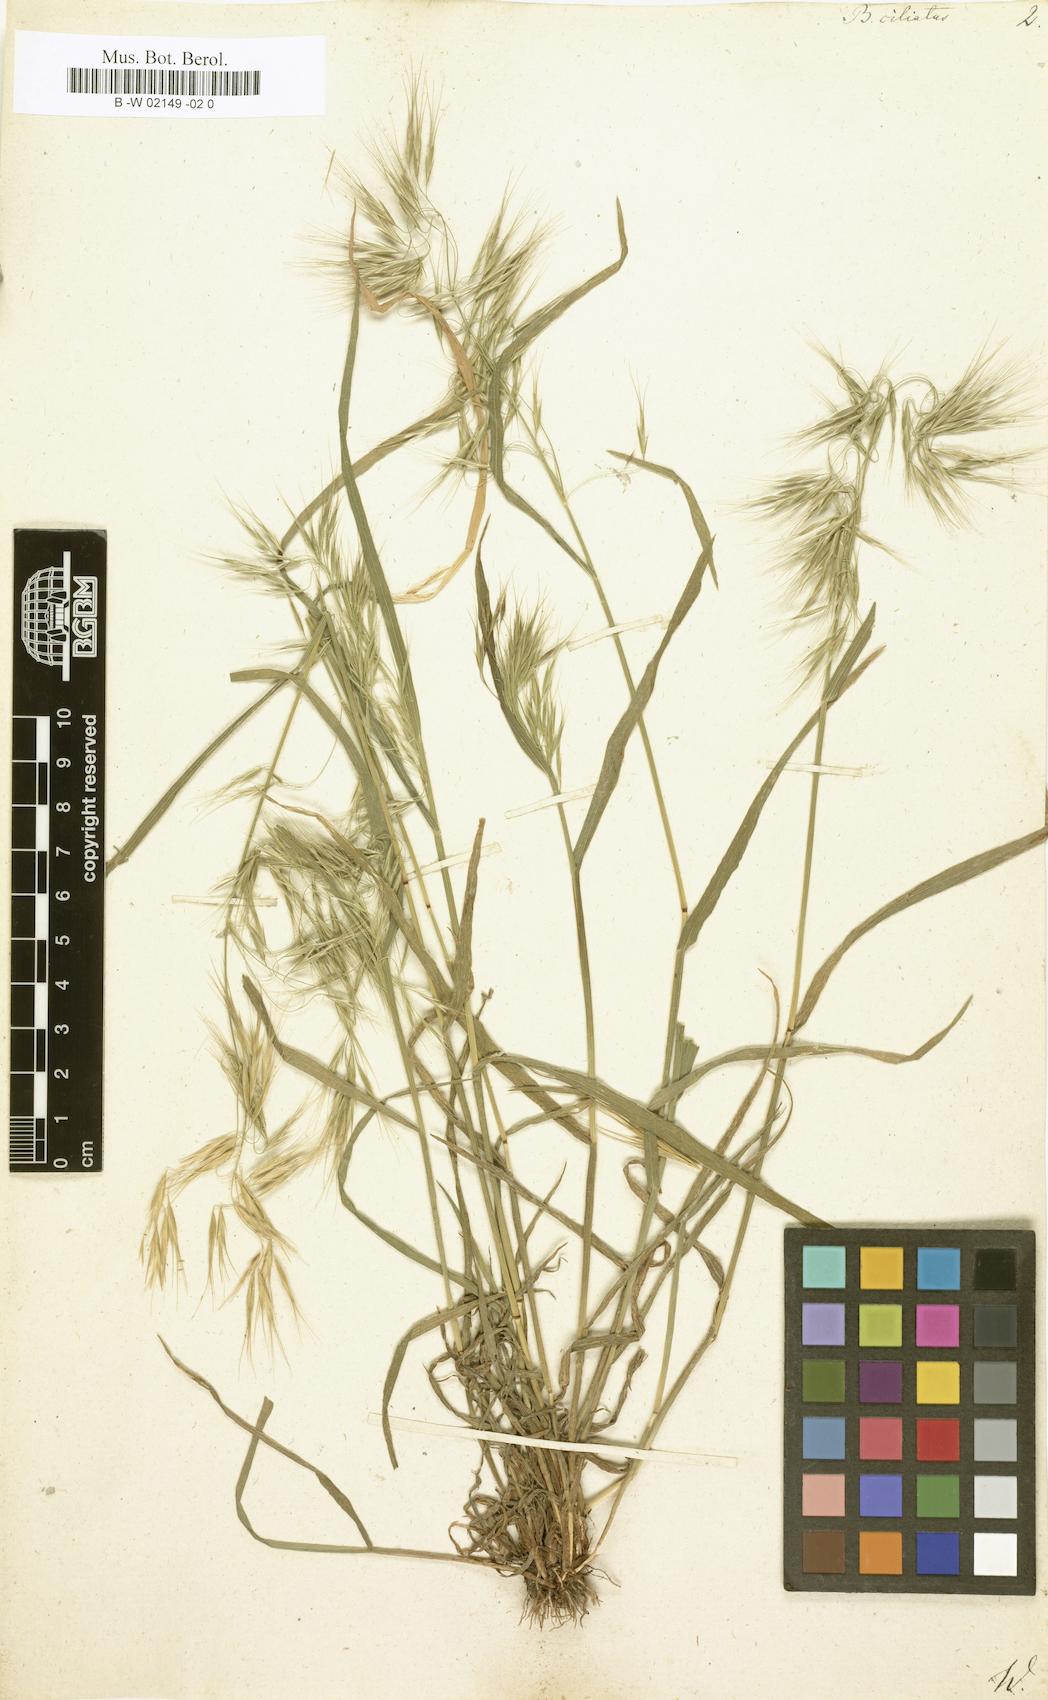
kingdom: Plantae
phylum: Tracheophyta
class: Liliopsida
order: Poales
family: Poaceae
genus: Bromus
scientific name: Bromus ciliatus
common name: Fringe brome
